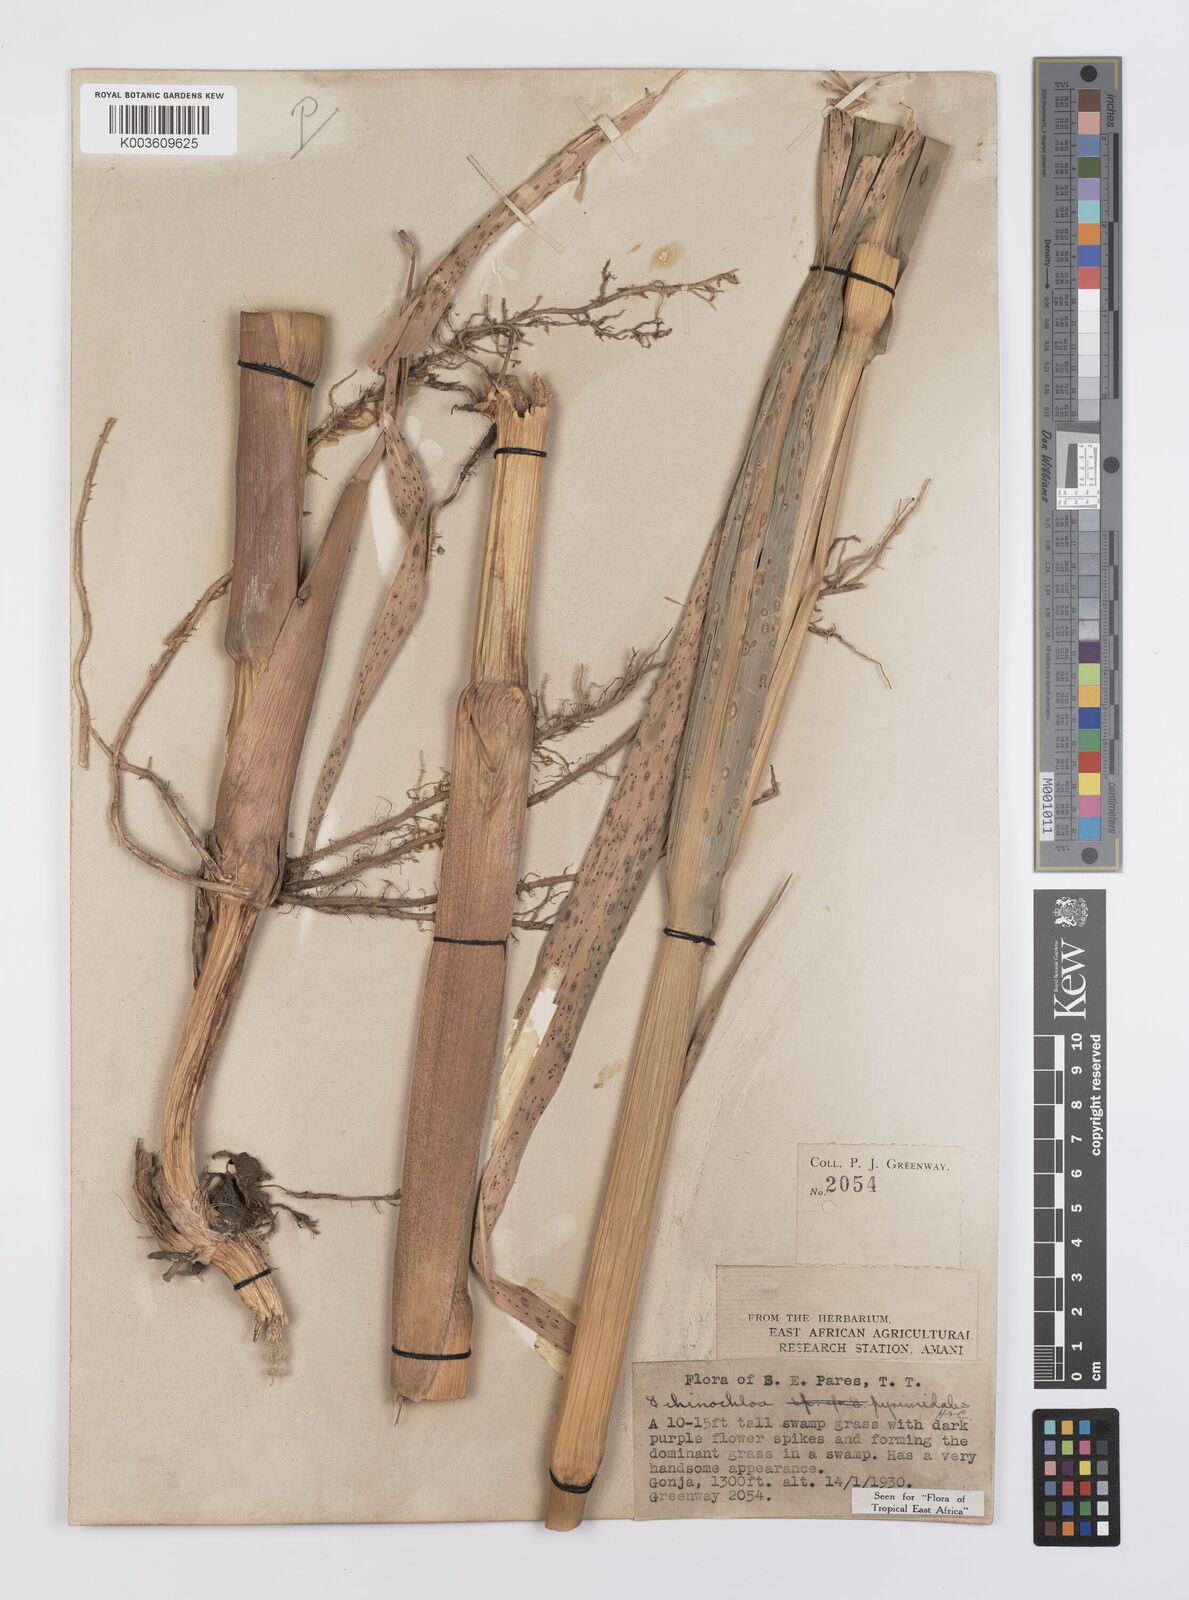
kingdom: Plantae
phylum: Tracheophyta
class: Liliopsida
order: Poales
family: Poaceae
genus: Echinochloa
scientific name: Echinochloa pyramidalis
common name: Antelope grass
